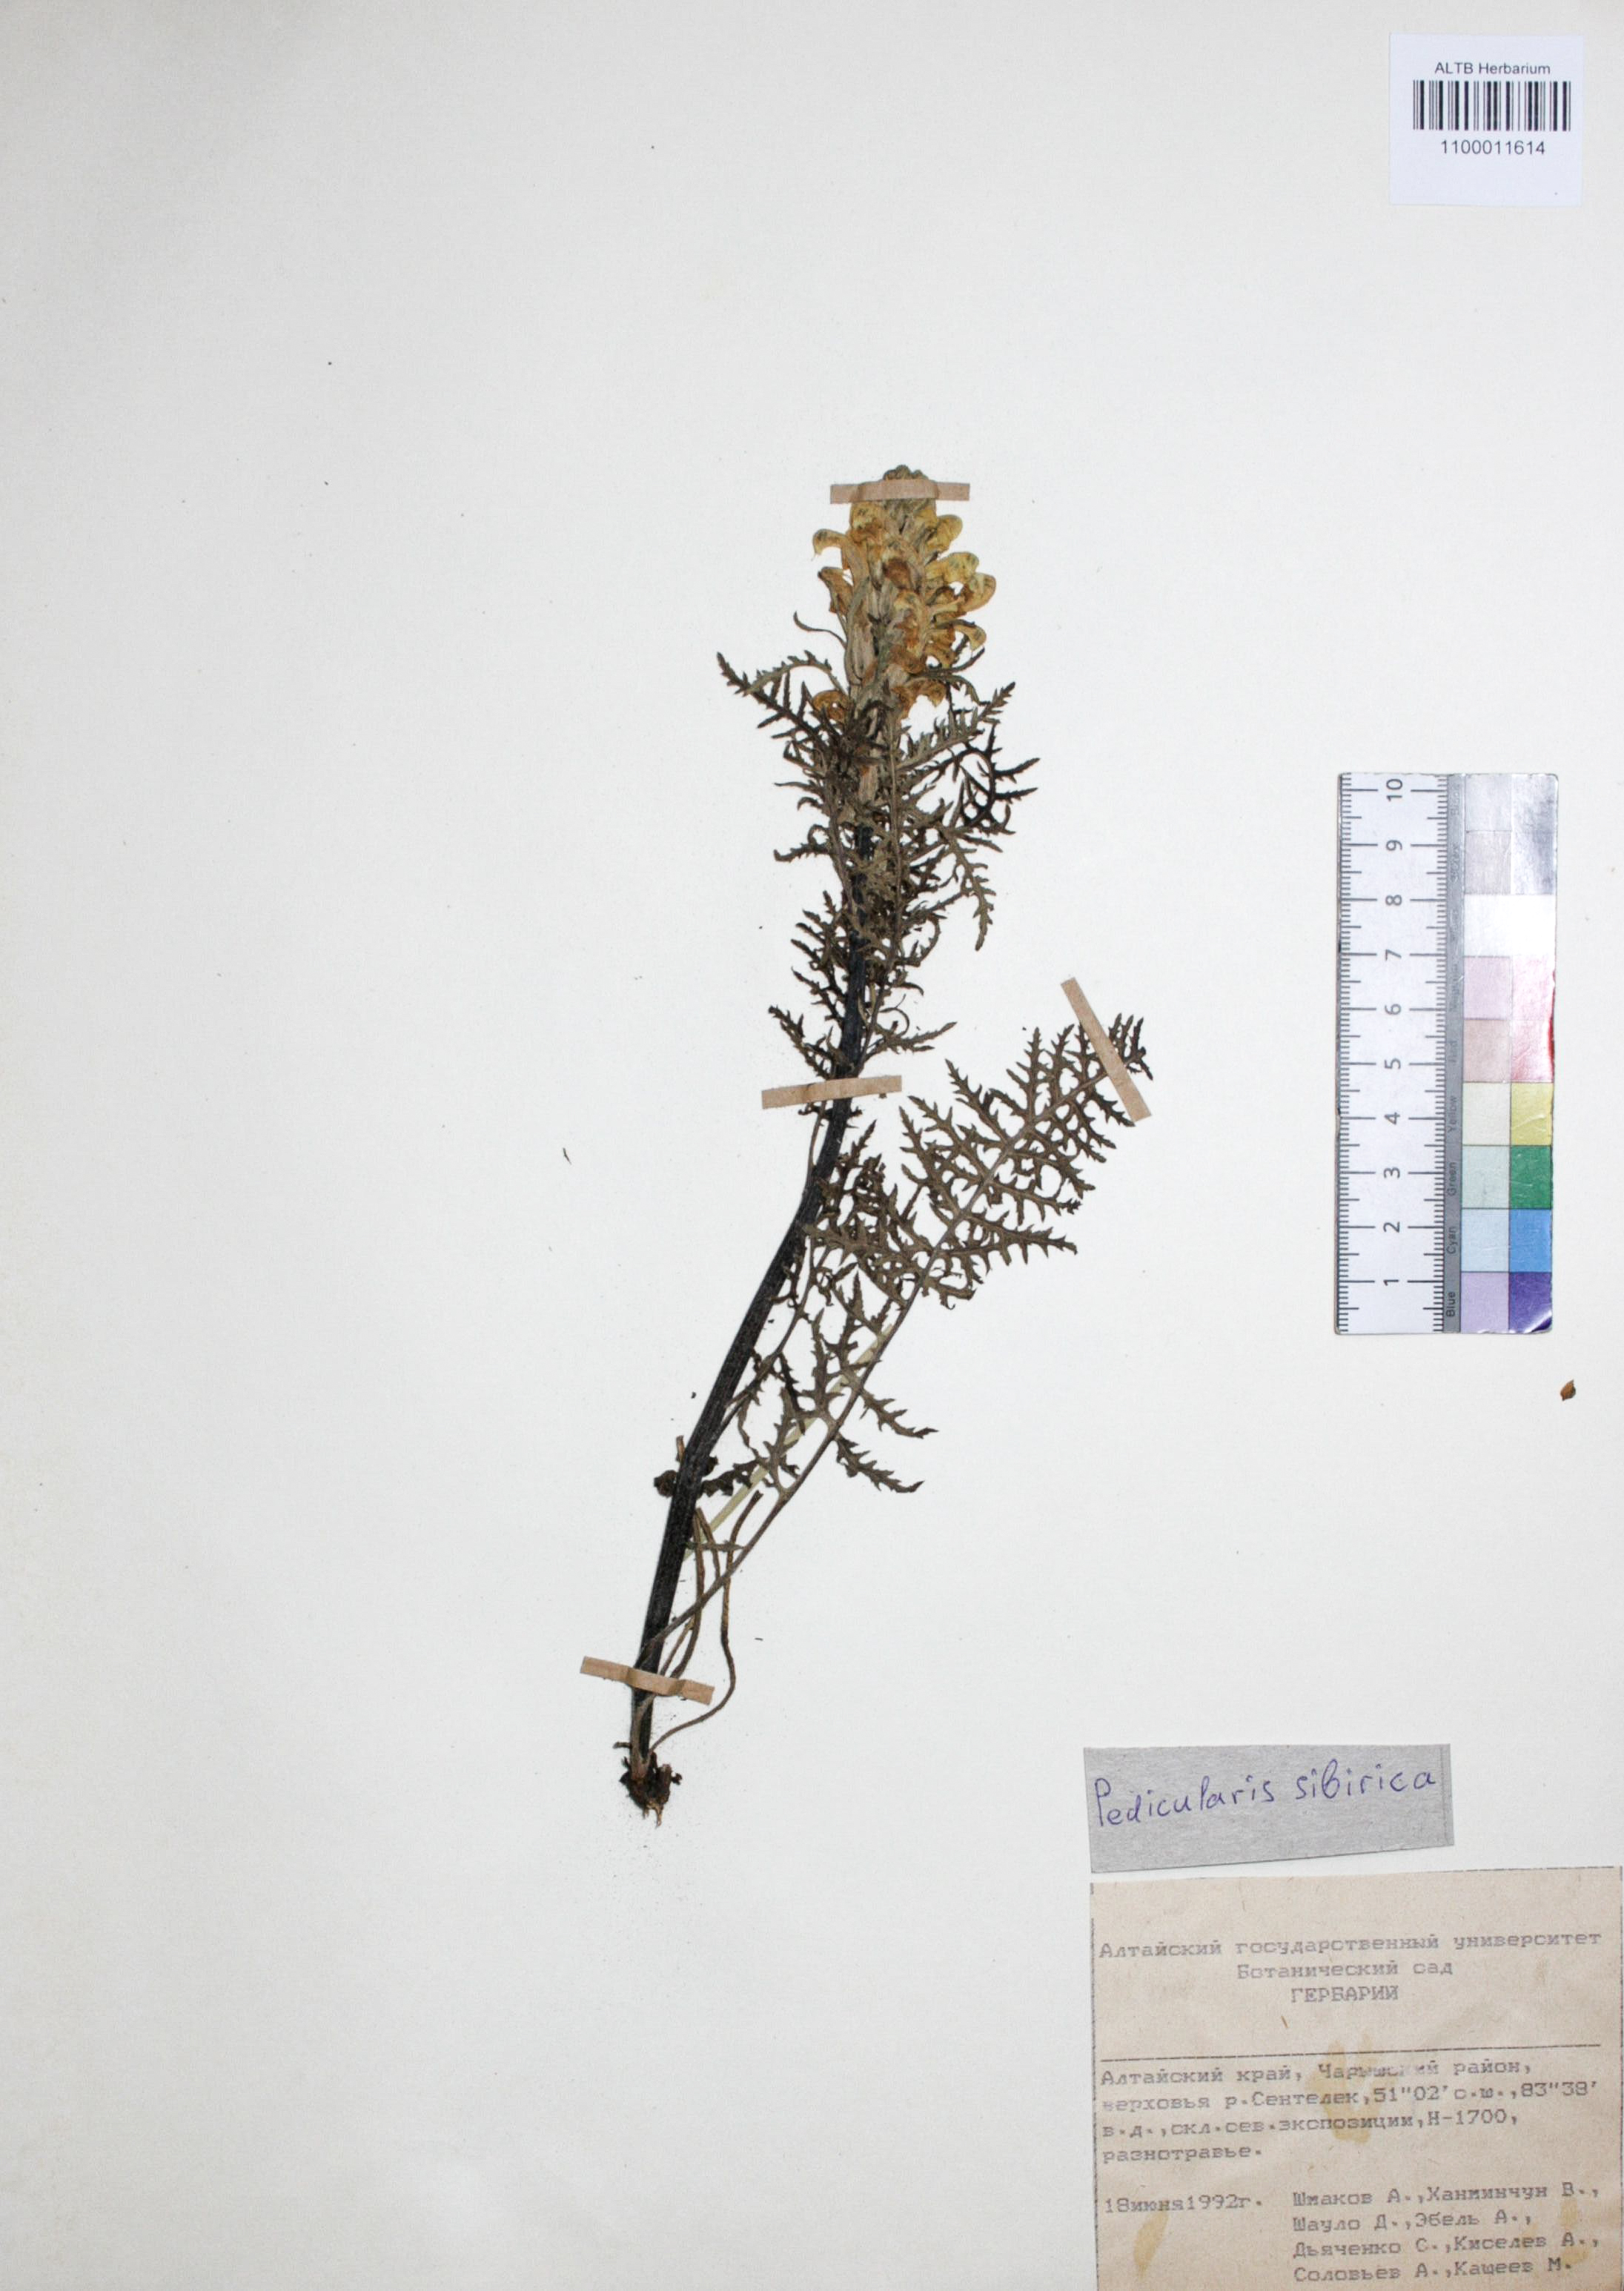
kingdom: Plantae
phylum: Tracheophyta
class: Magnoliopsida
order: Lamiales
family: Orobanchaceae
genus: Pedicularis
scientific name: Pedicularis sibirica
